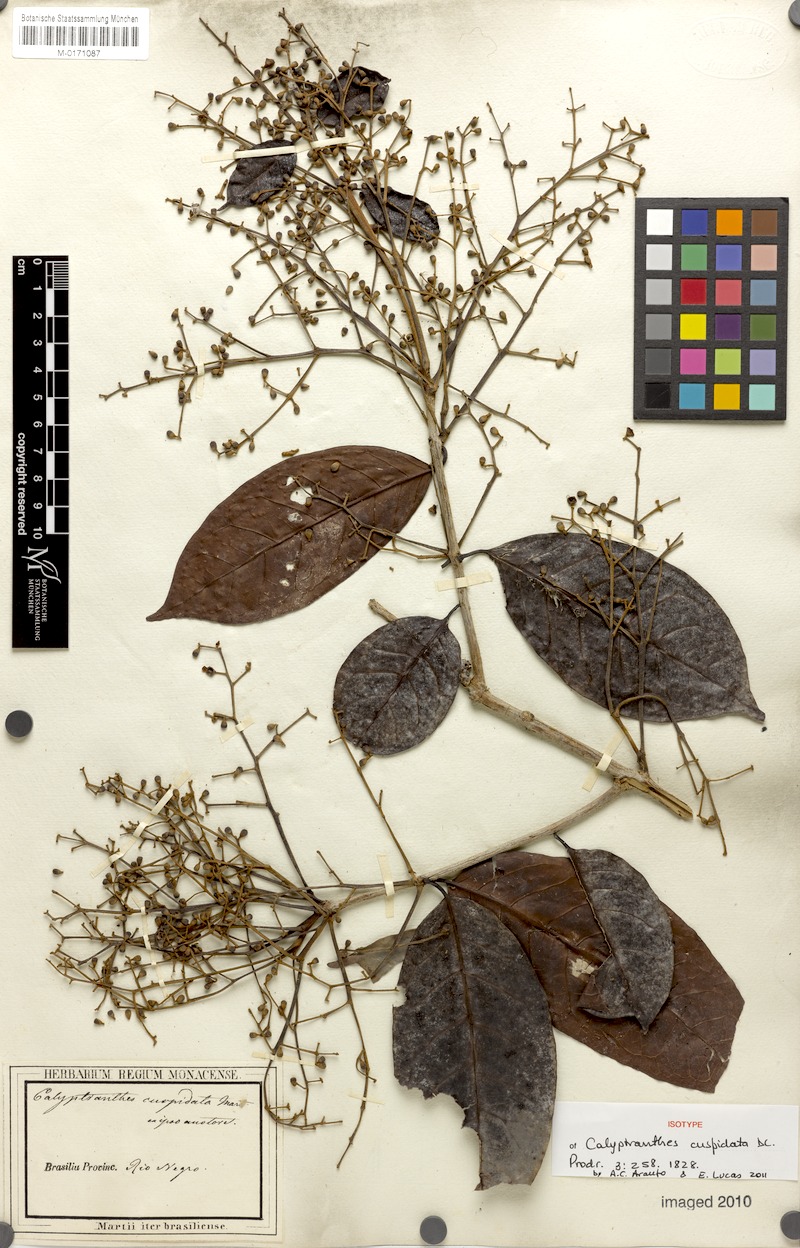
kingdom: Plantae
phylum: Tracheophyta
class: Magnoliopsida
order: Myrtales
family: Myrtaceae
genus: Myrcia
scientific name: Myrcia cuspidata
